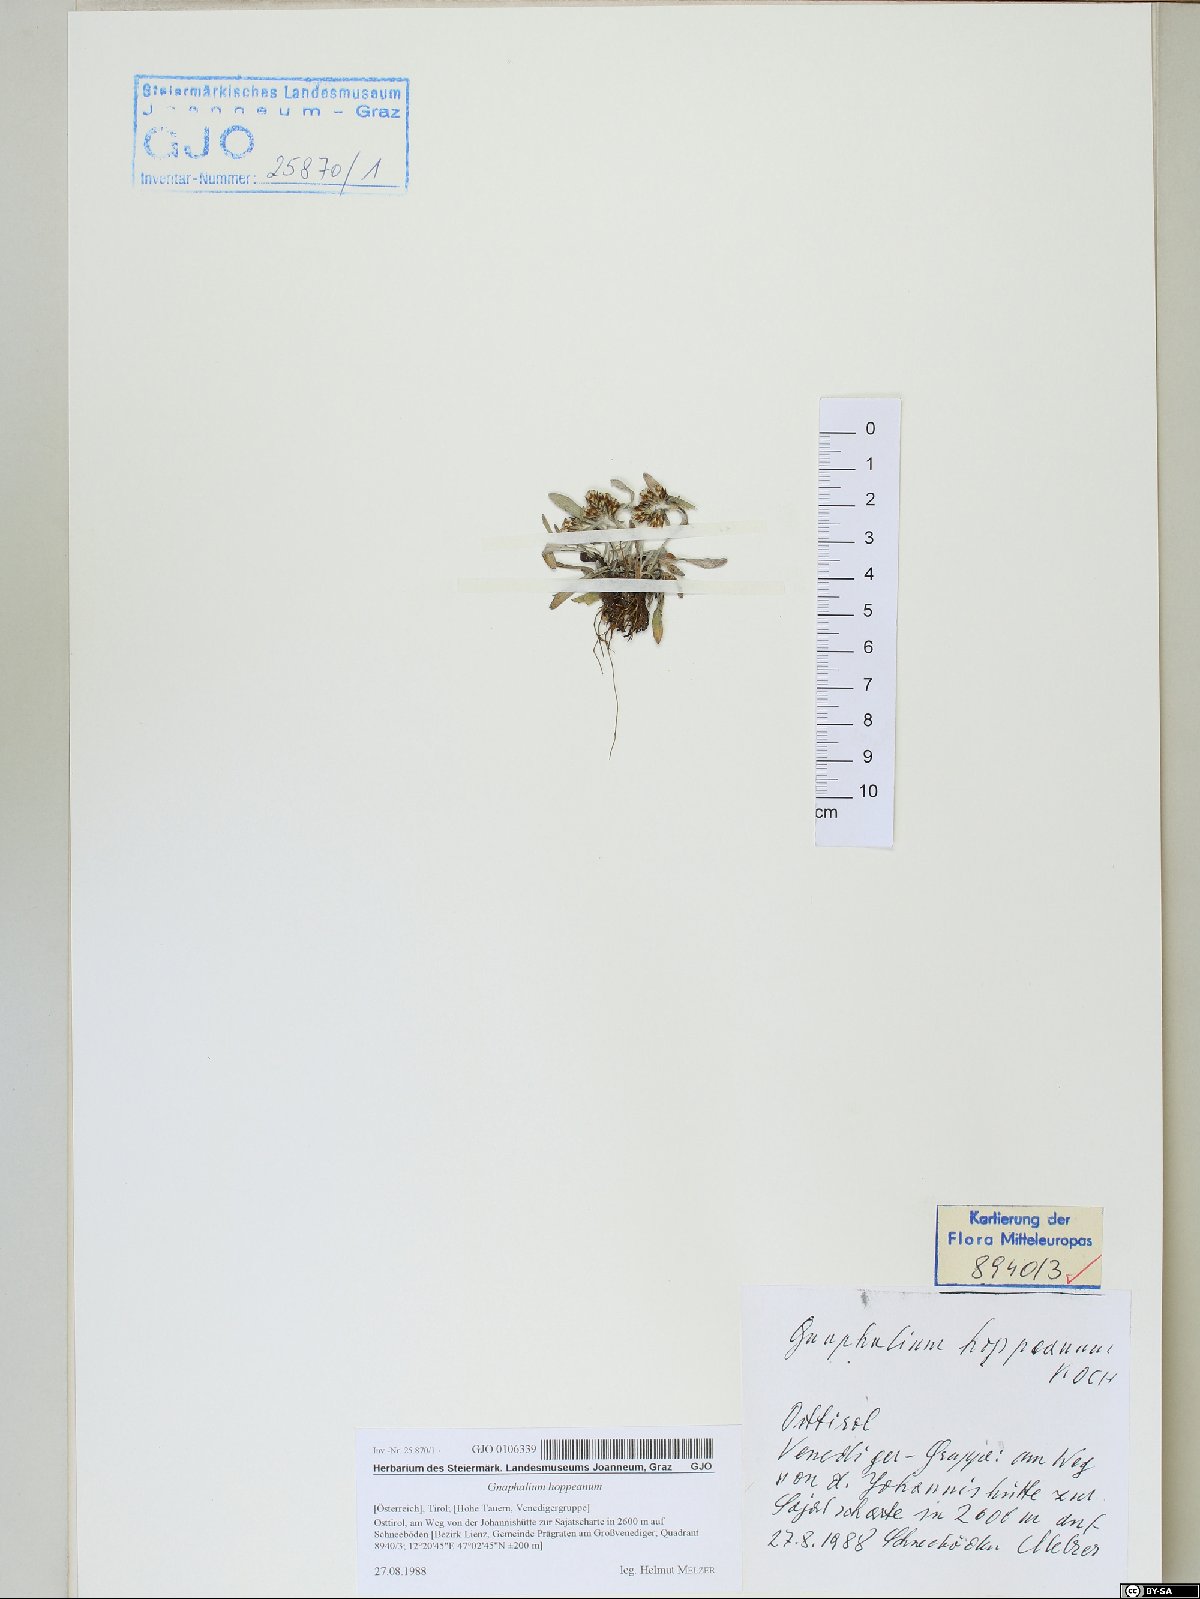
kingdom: Plantae
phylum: Tracheophyta
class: Magnoliopsida
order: Asterales
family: Asteraceae
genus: Omalotheca
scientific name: Omalotheca hoppeana
